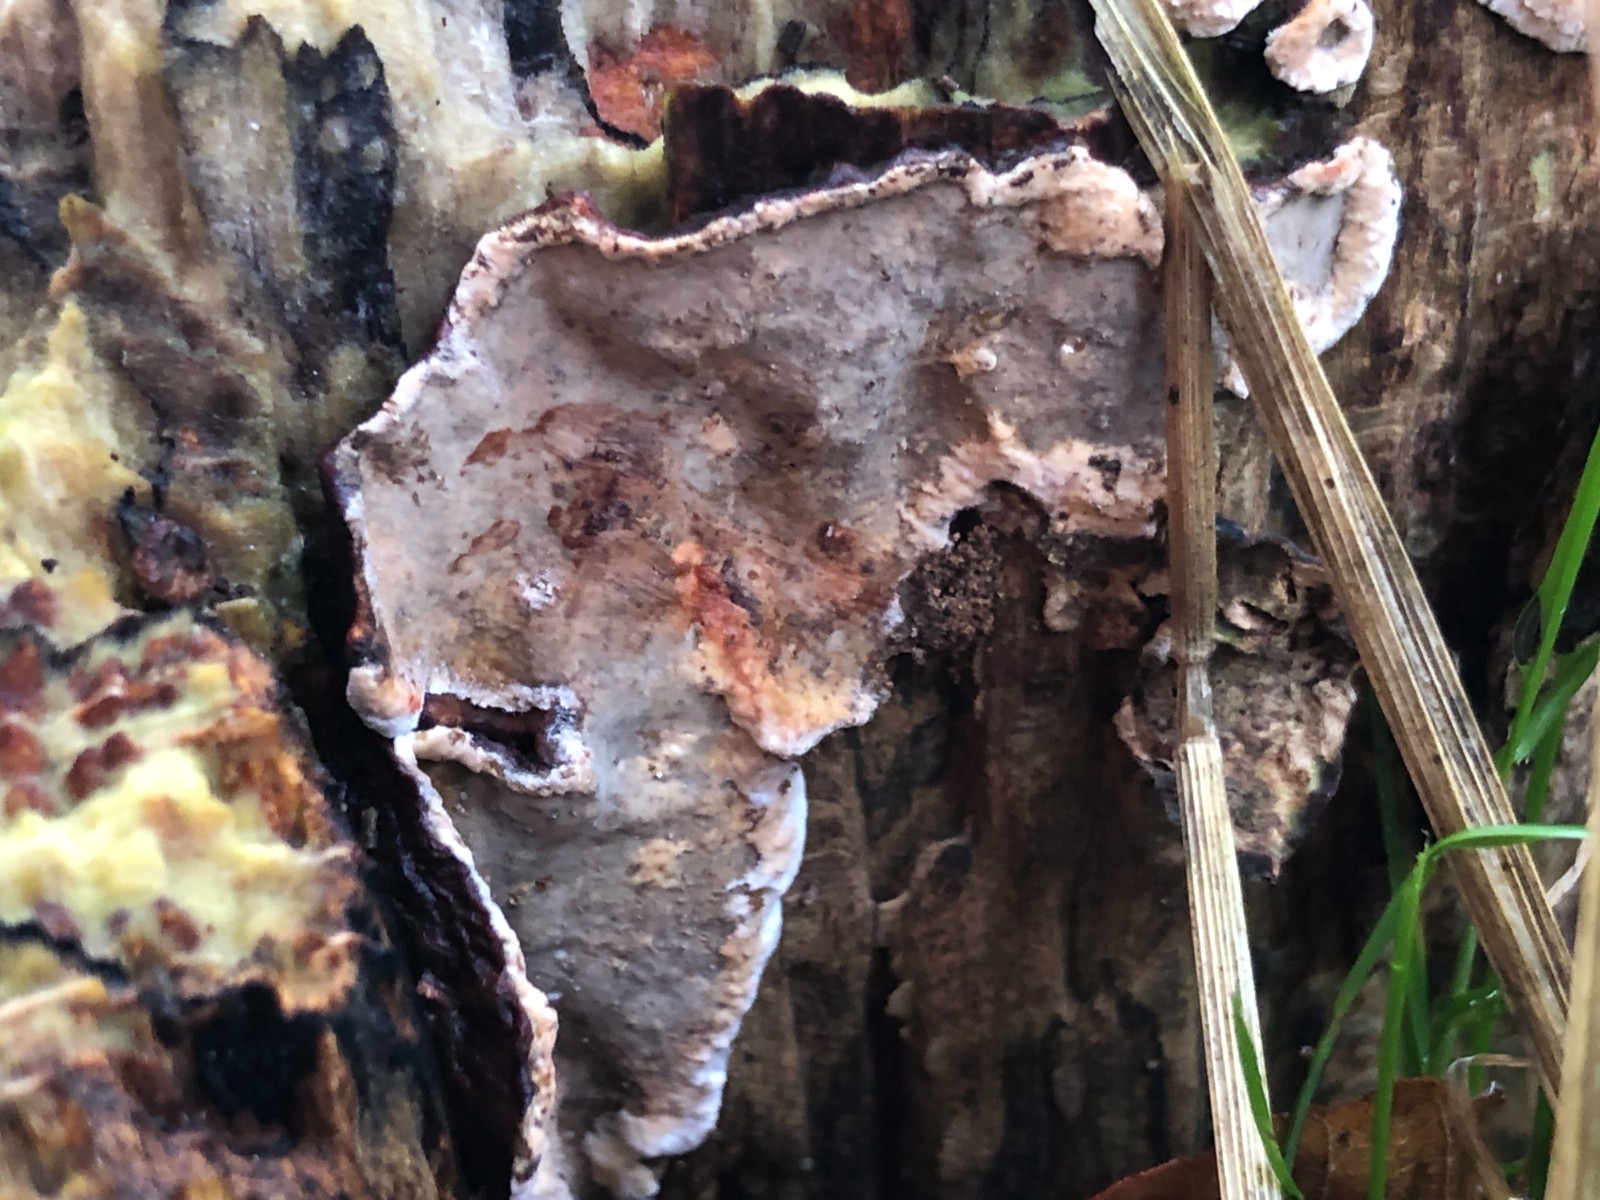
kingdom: Fungi
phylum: Basidiomycota
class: Agaricomycetes
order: Russulales
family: Stereaceae
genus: Stereum
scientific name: Stereum rugosum
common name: rynket lædersvamp
